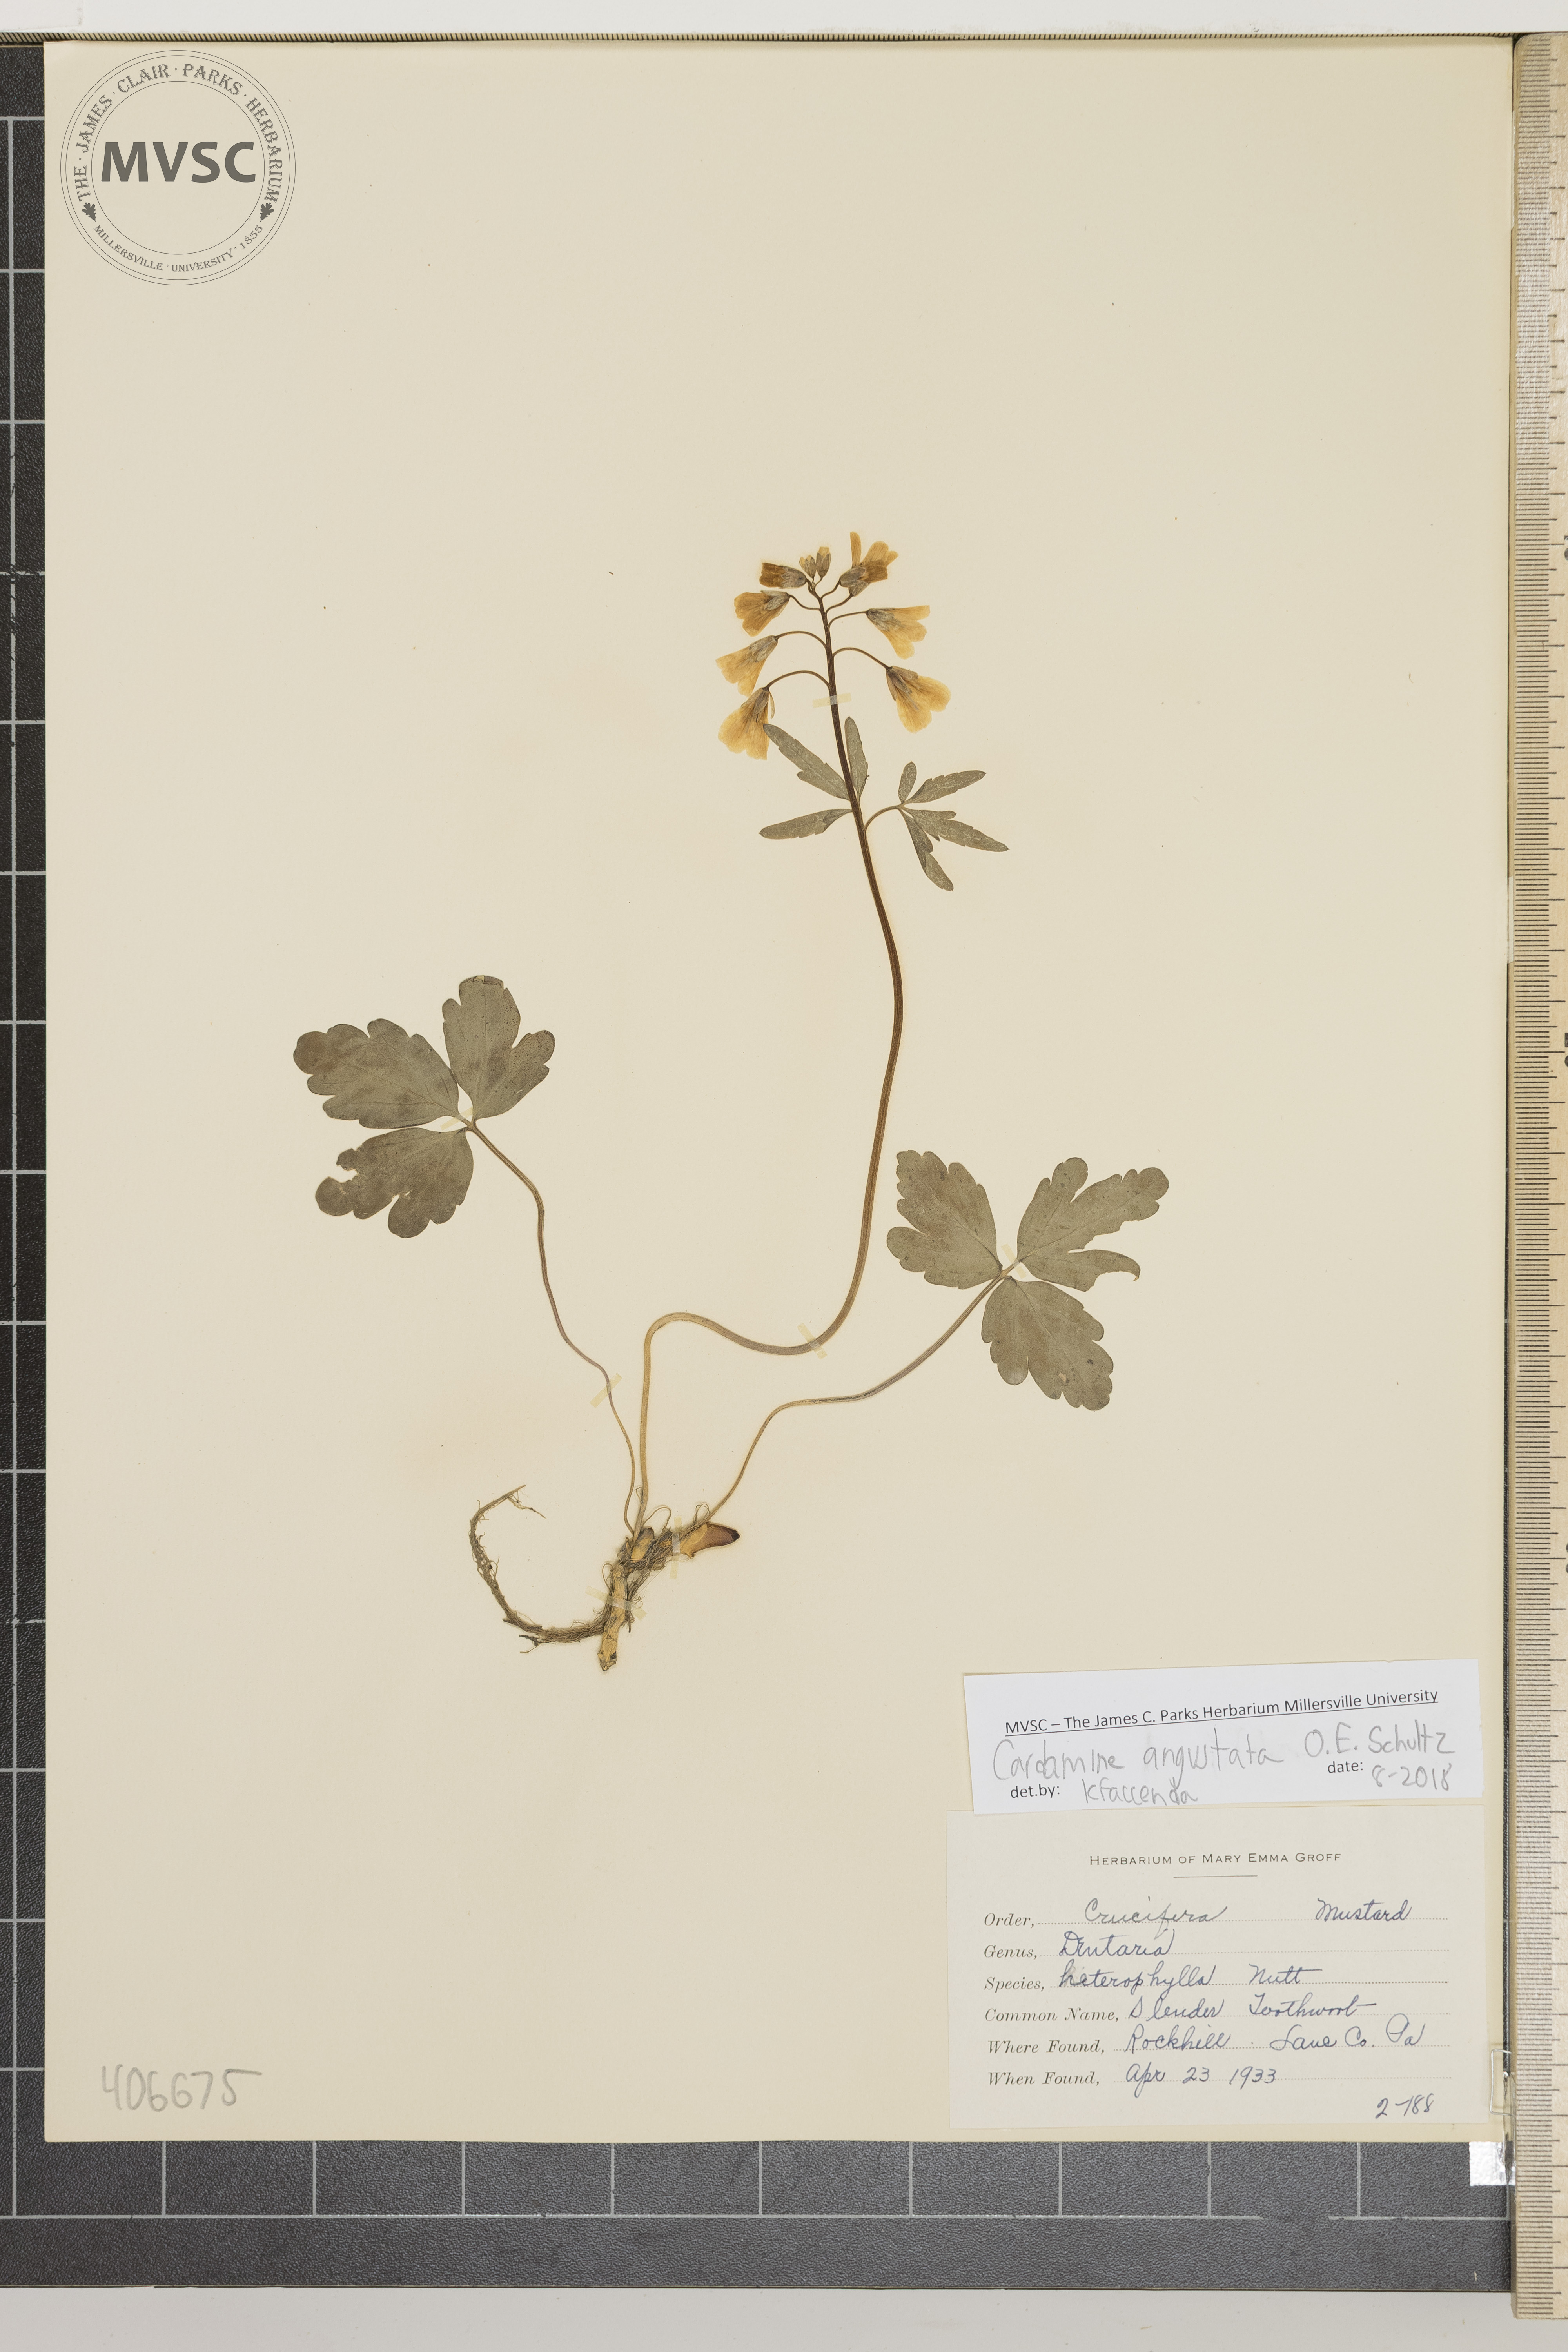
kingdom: Plantae
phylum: Tracheophyta
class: Magnoliopsida
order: Brassicales
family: Brassicaceae
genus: Cardamine
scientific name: Cardamine angustata
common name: Slender Toothwort
